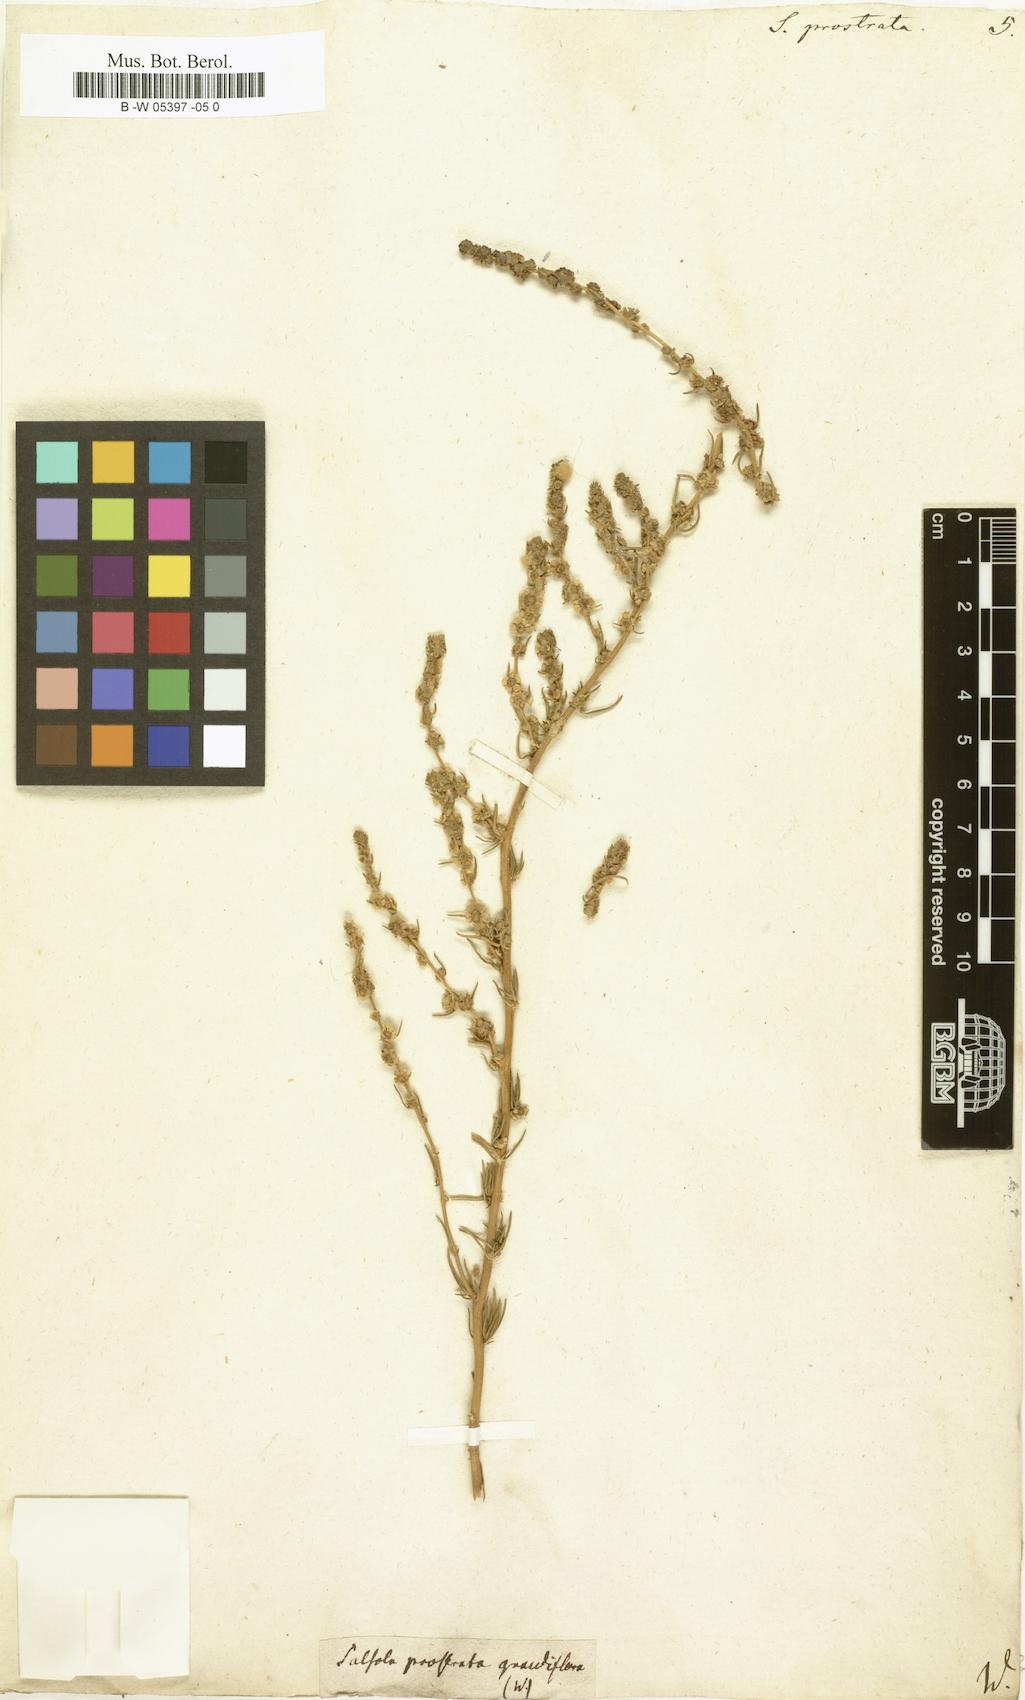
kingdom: Plantae
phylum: Tracheophyta
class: Magnoliopsida
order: Caryophyllales
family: Amaranthaceae
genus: Bassia
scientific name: Bassia prostrata
